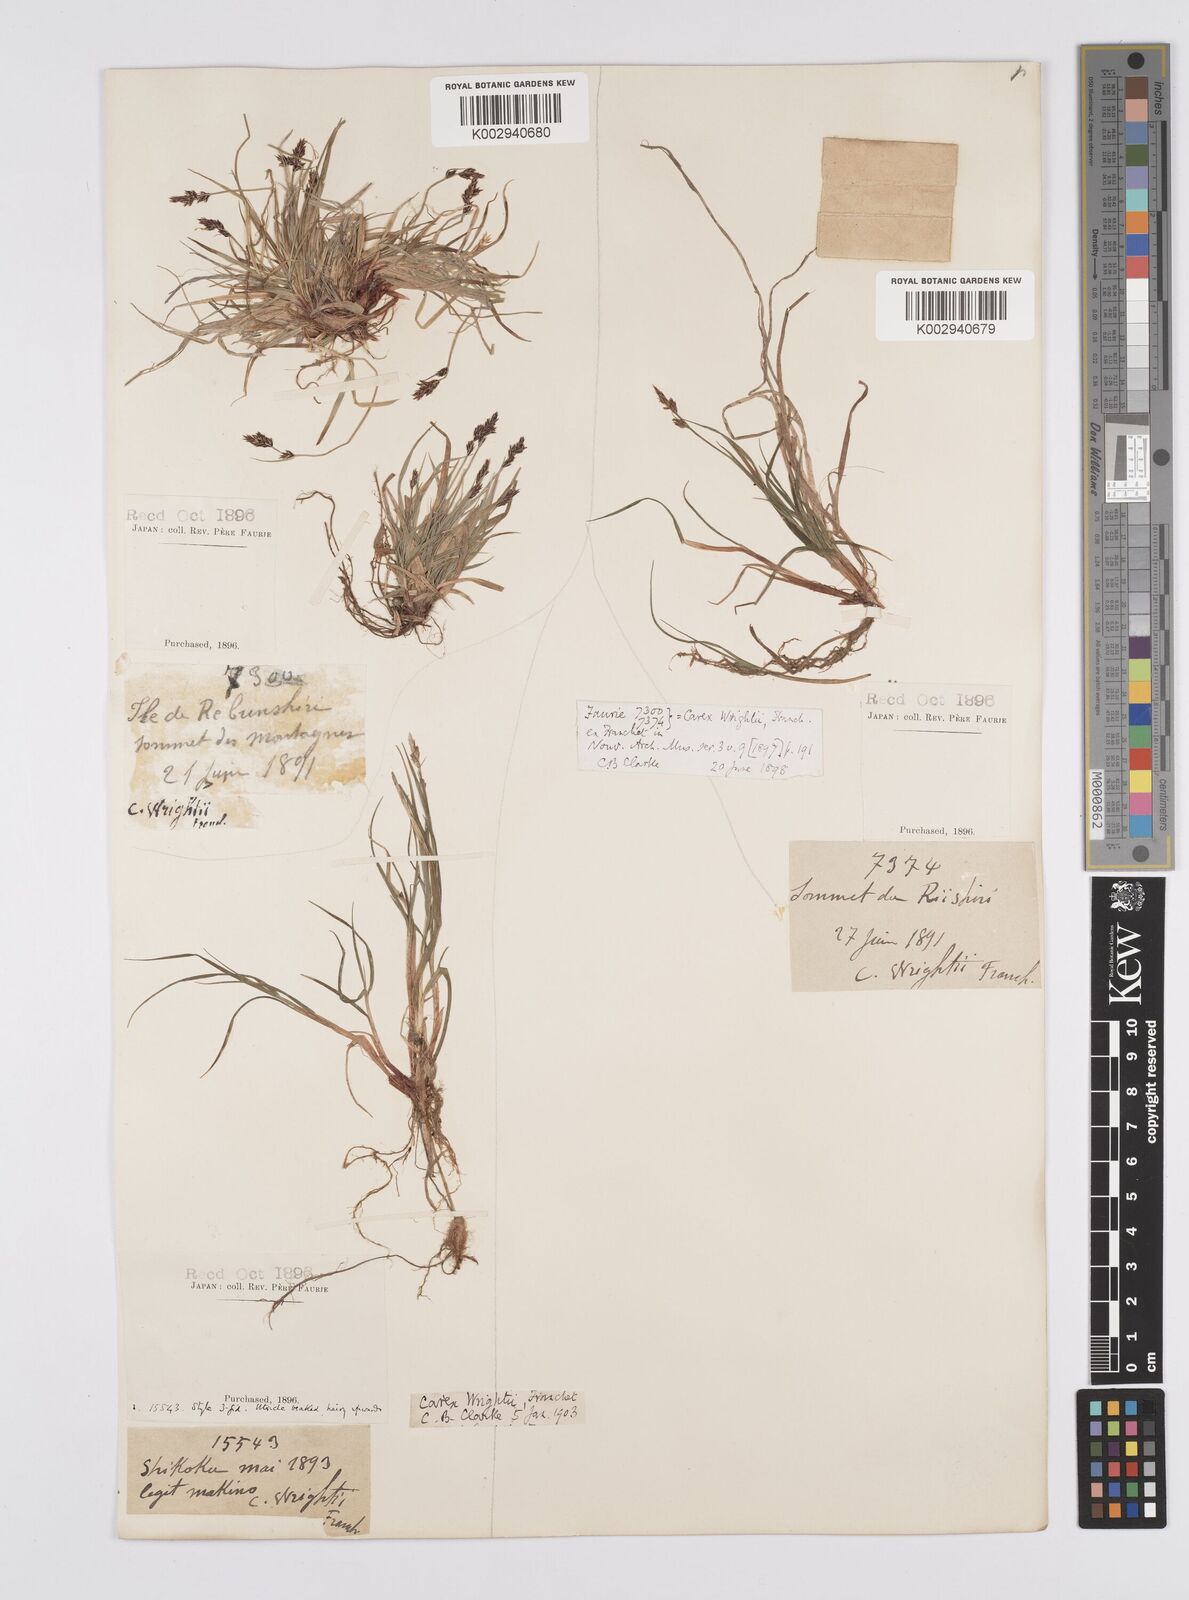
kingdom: Plantae
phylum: Tracheophyta
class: Liliopsida
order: Poales
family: Cyperaceae
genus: Carex
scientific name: Carex oxyandra
